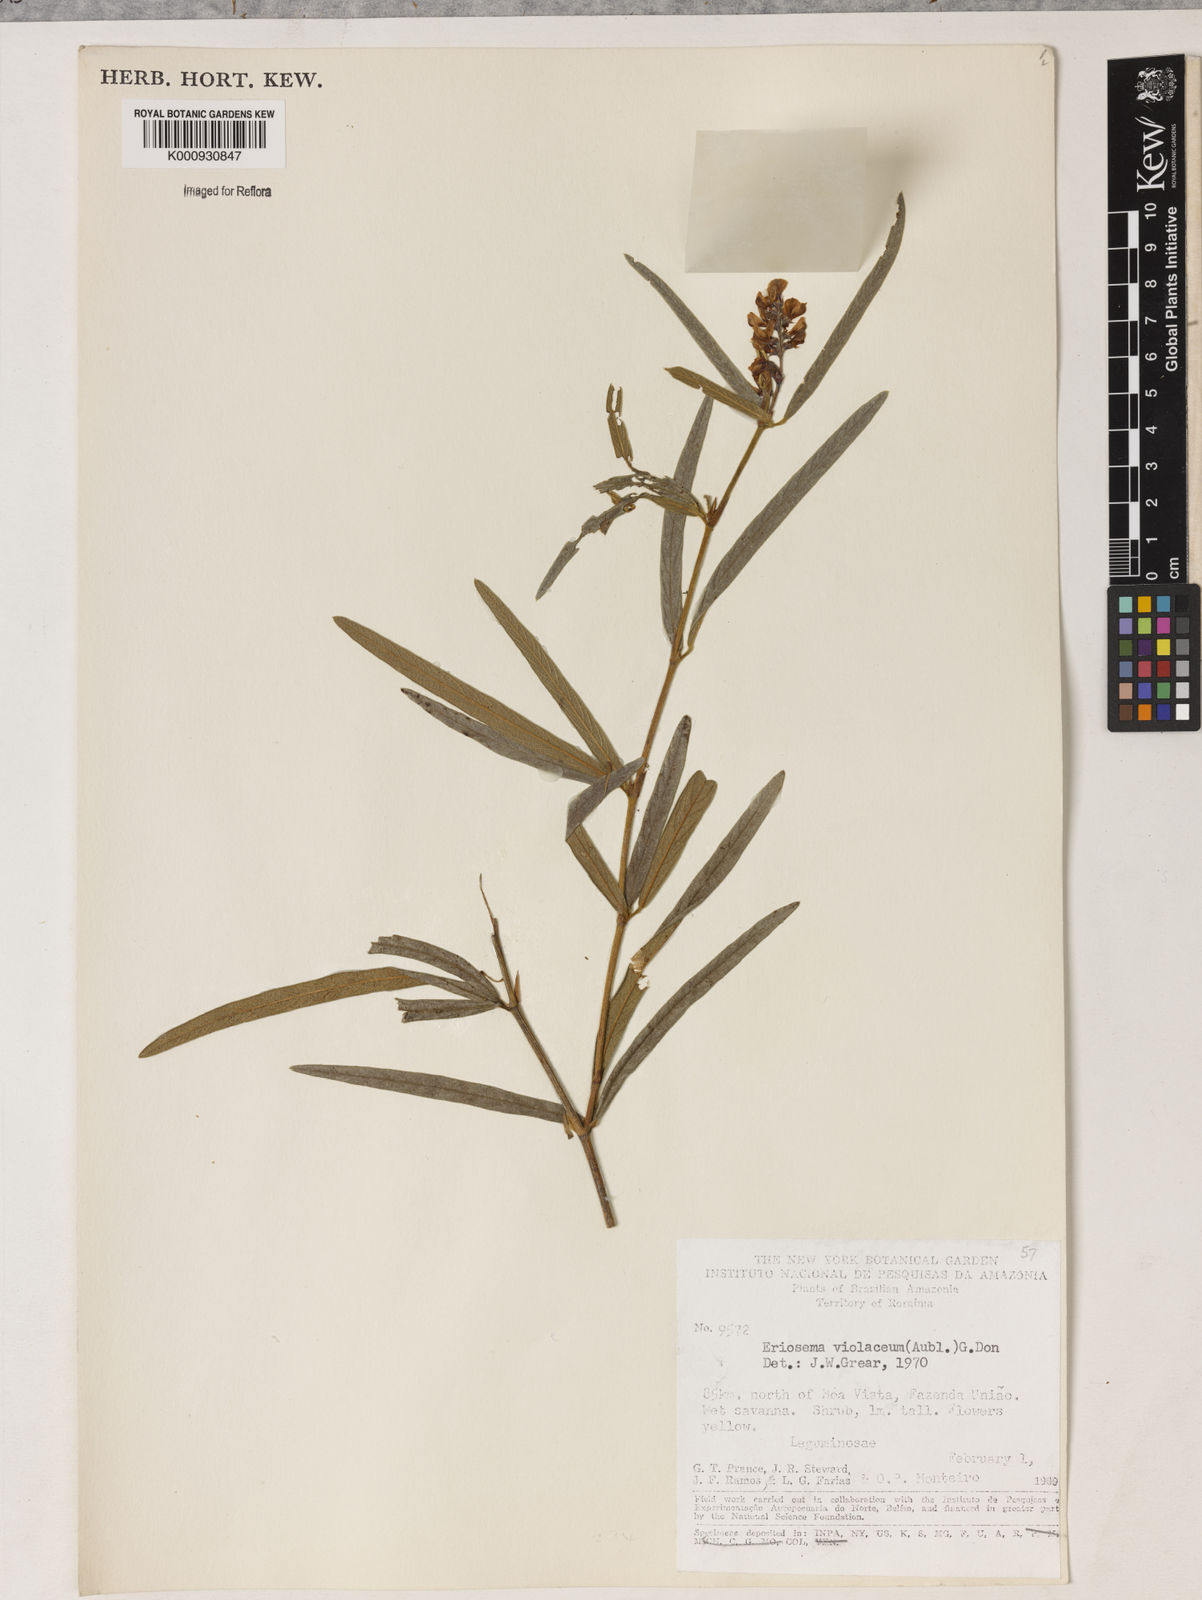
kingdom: Plantae
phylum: Tracheophyta
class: Magnoliopsida
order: Fabales
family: Fabaceae
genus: Eriosema
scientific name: Eriosema violaceum
